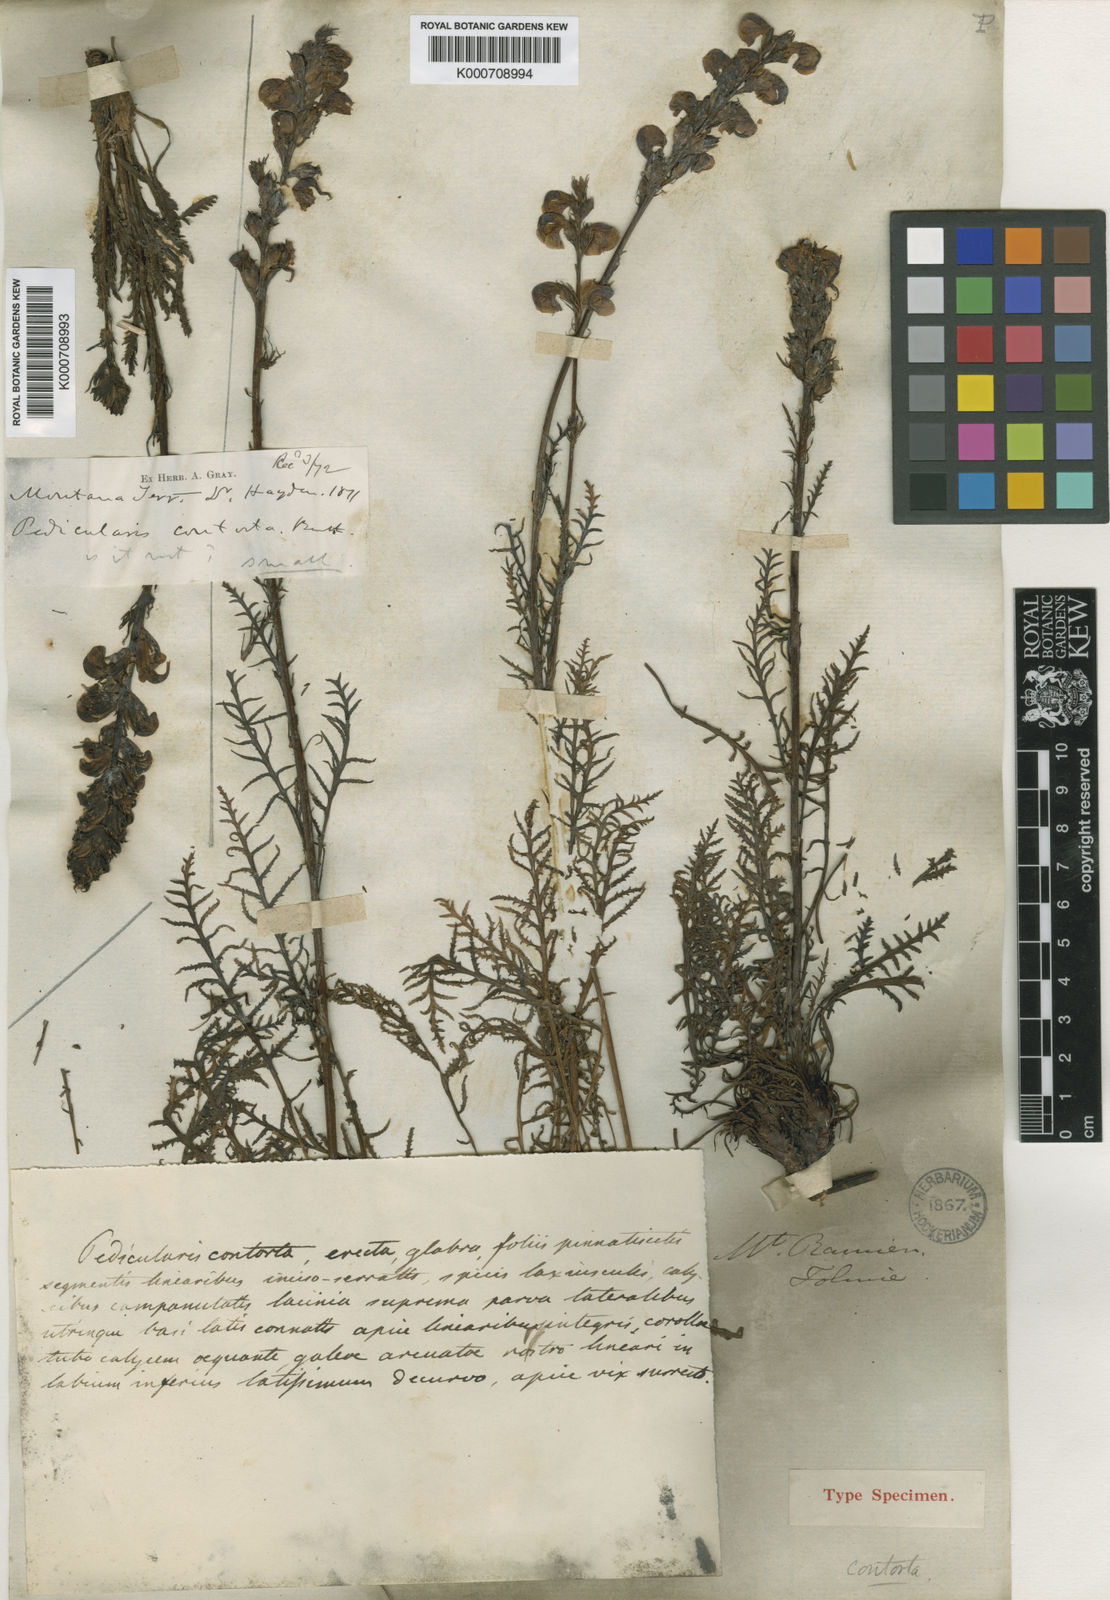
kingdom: Plantae
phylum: Tracheophyta
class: Magnoliopsida
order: Lamiales
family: Orobanchaceae
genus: Pedicularis
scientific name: Pedicularis contorta
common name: Coiled lousewort
